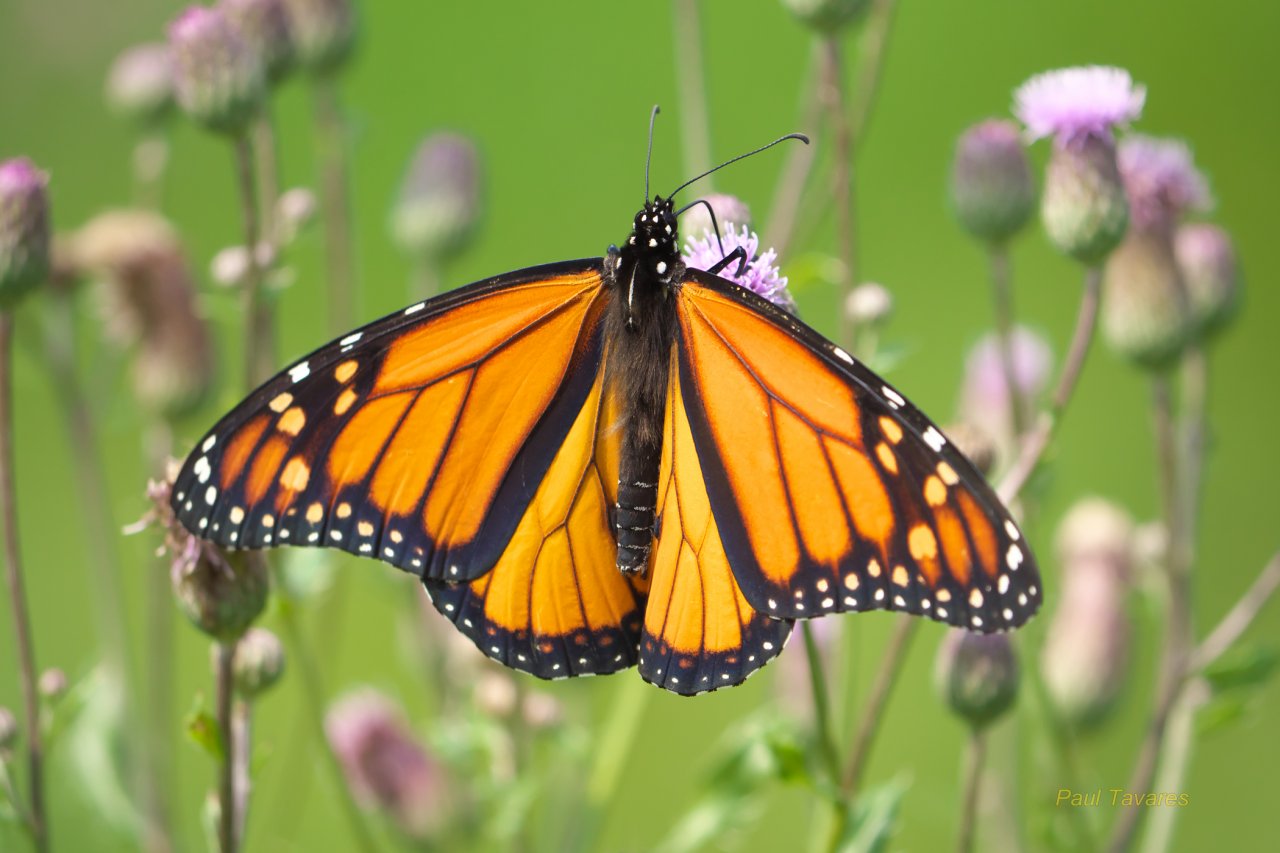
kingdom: Animalia
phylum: Arthropoda
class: Insecta
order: Lepidoptera
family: Nymphalidae
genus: Danaus
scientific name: Danaus plexippus
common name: Monarch
